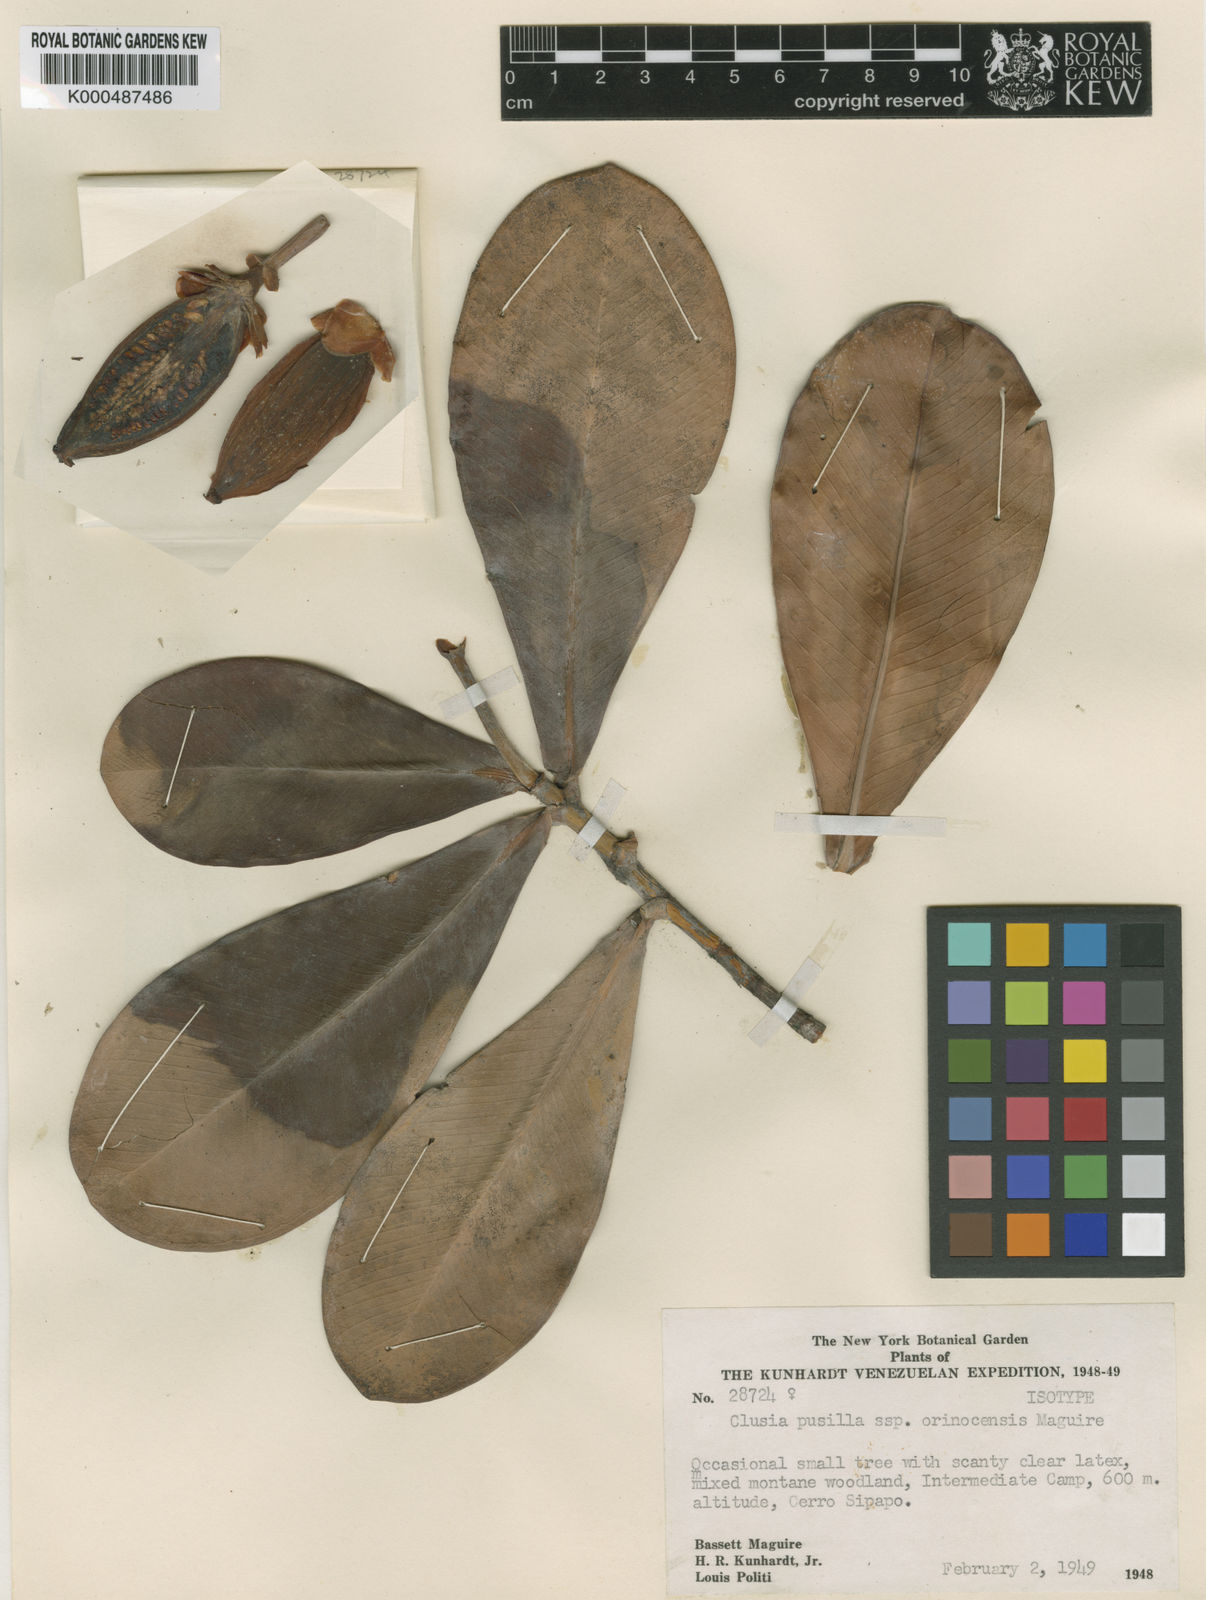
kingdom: Plantae
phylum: Tracheophyta
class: Magnoliopsida
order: Malpighiales
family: Clusiaceae
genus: Clusia
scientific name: Clusia pusilla
